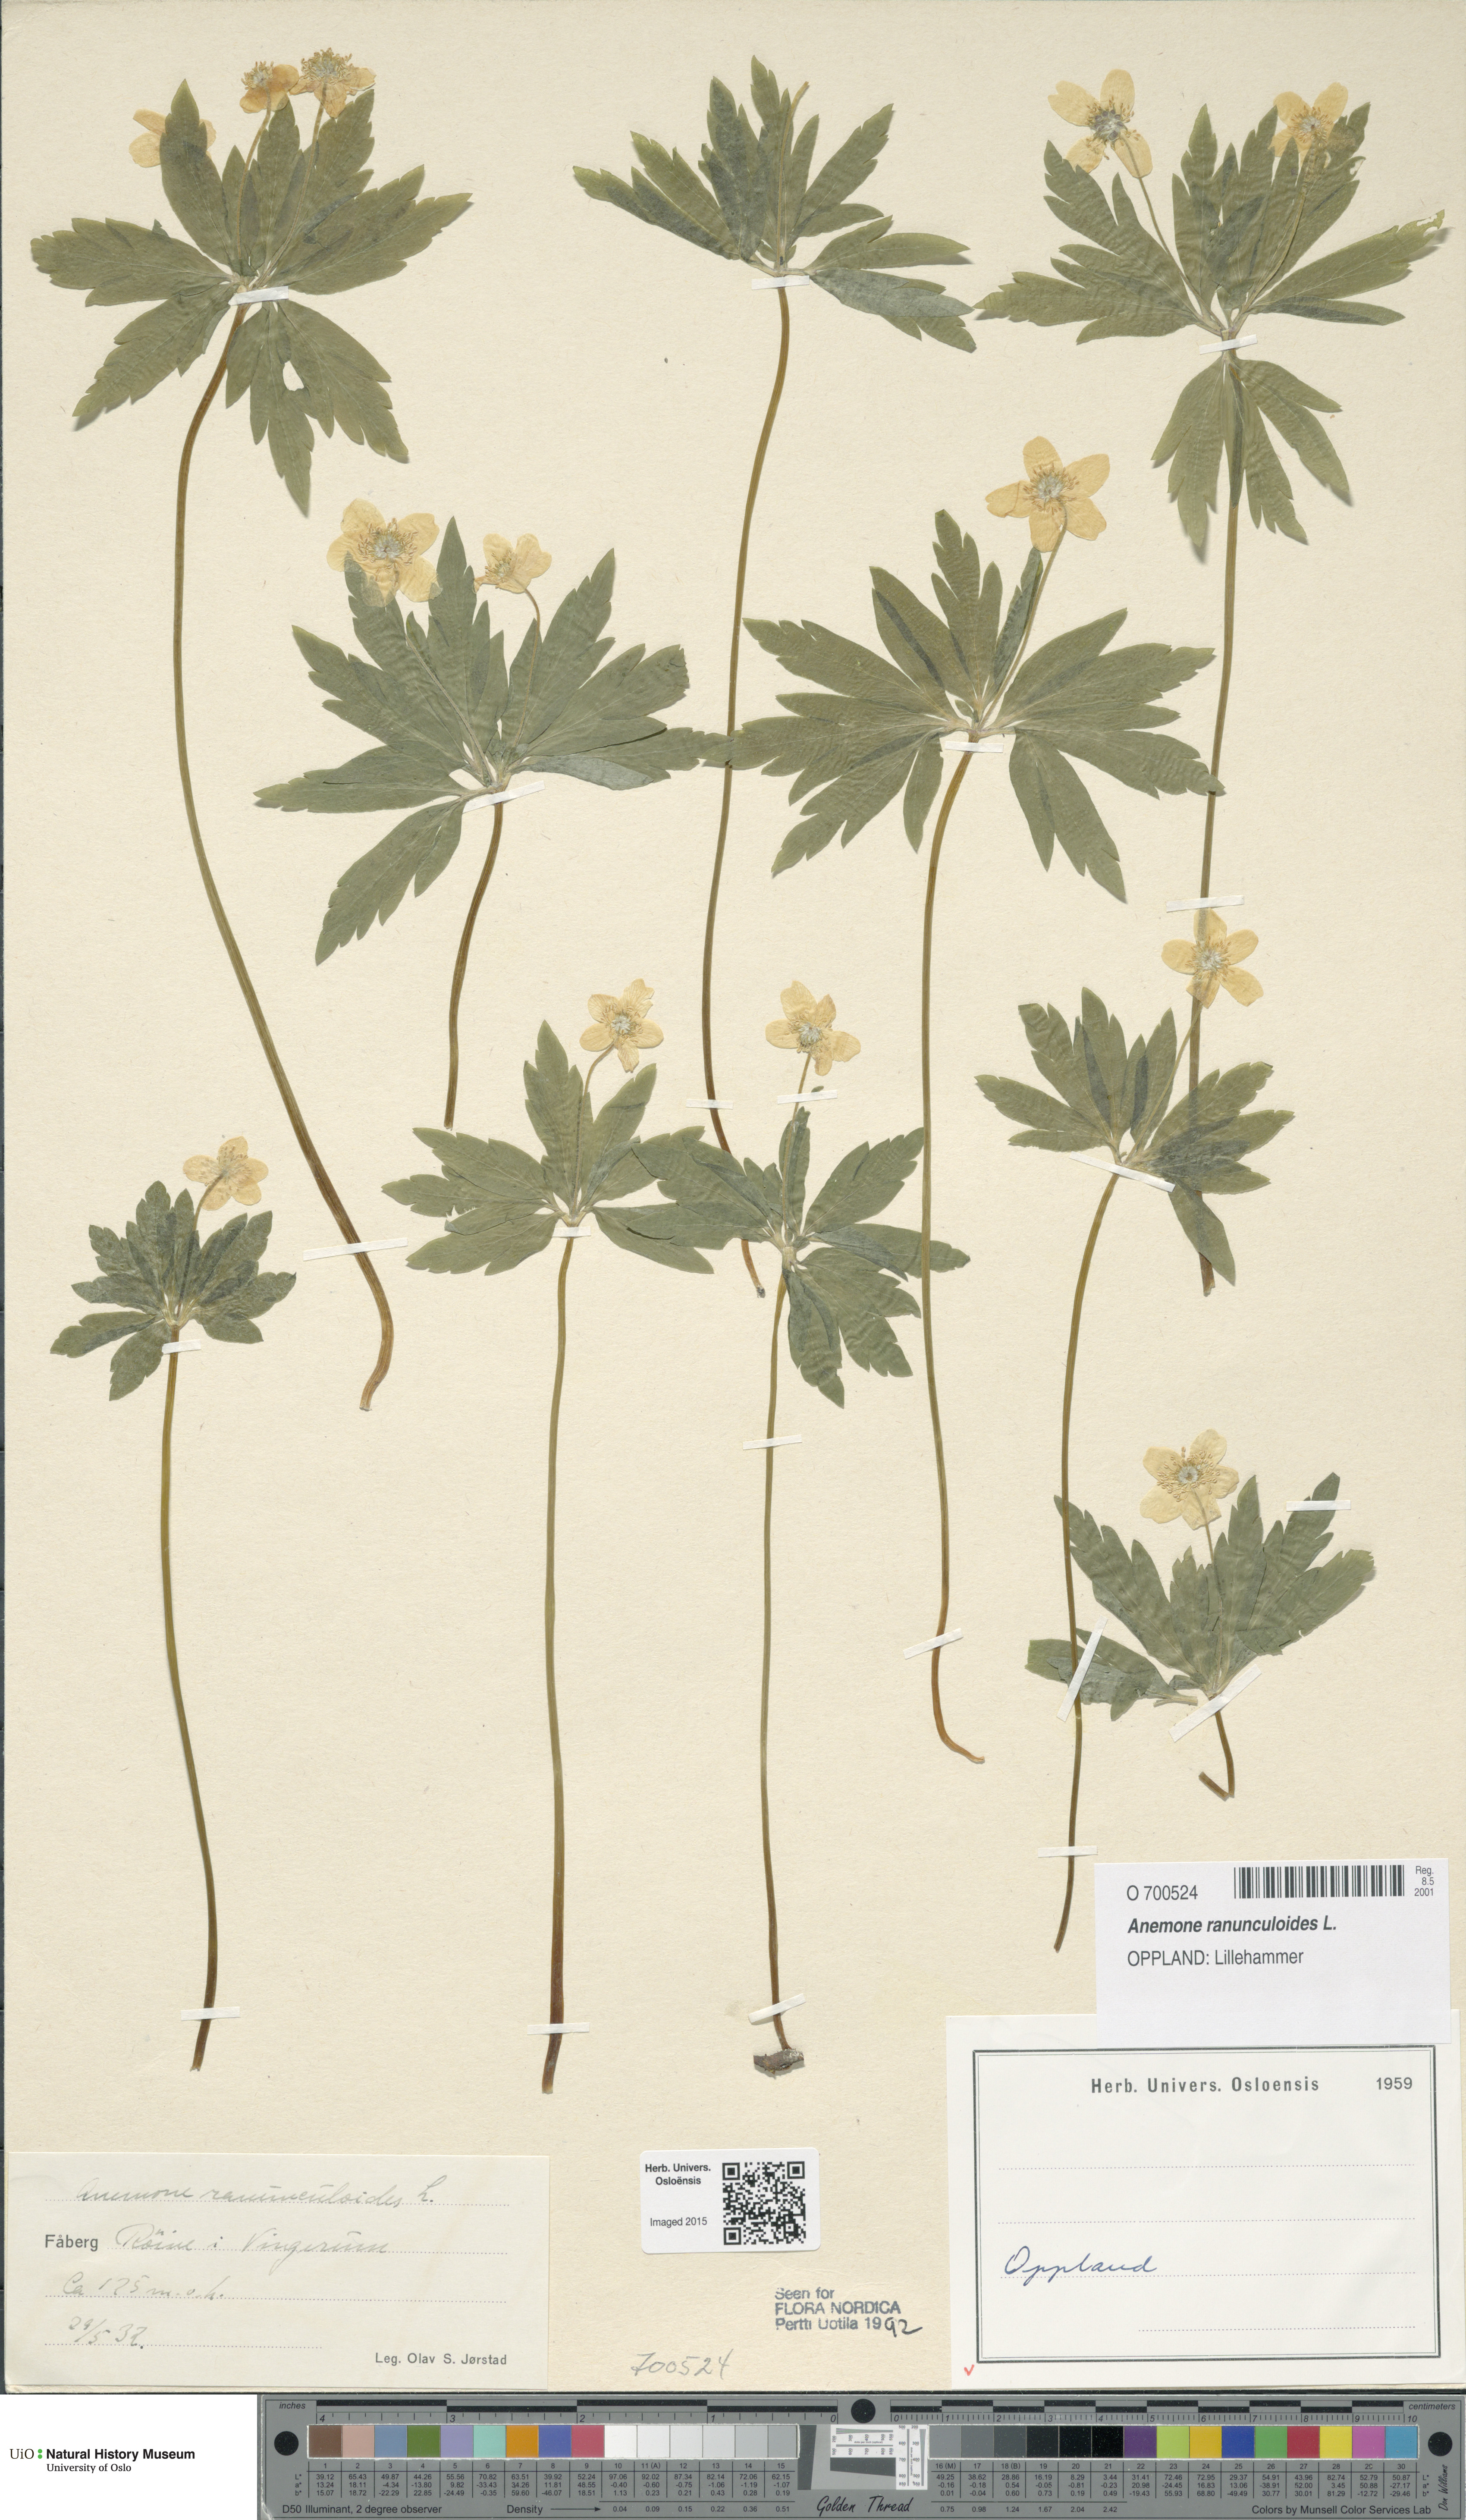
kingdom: Plantae
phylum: Tracheophyta
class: Magnoliopsida
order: Ranunculales
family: Ranunculaceae
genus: Anemone
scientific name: Anemone ranunculoides
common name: Yellow anemone
